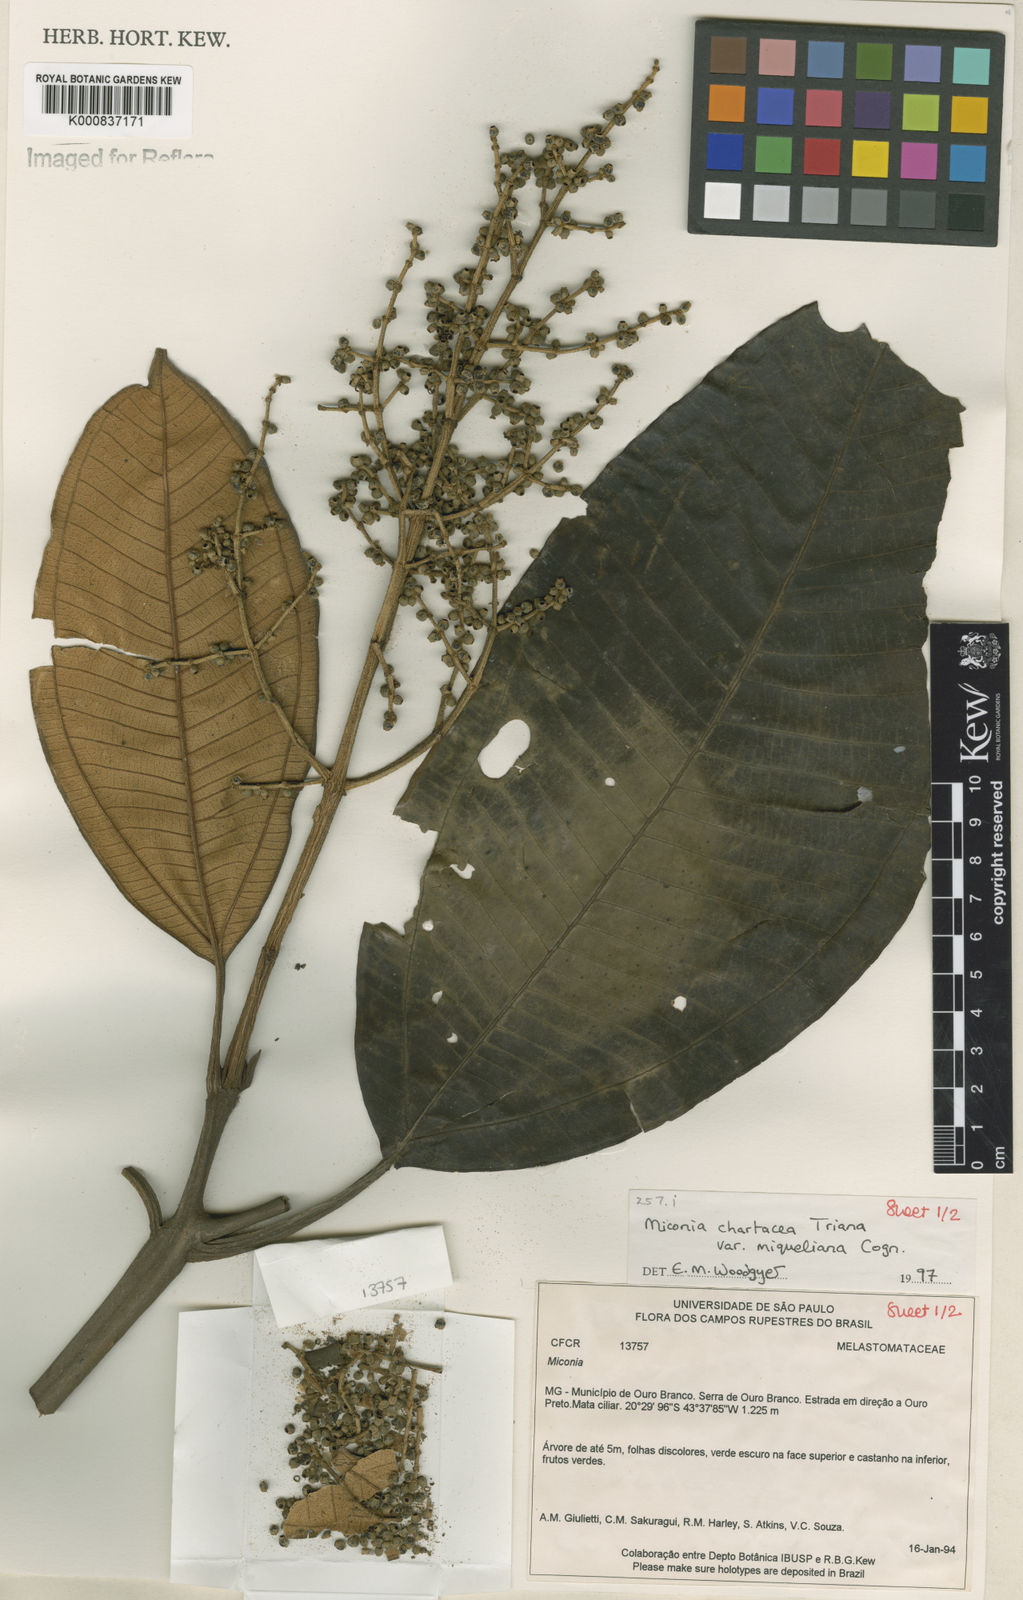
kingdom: Plantae
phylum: Tracheophyta
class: Magnoliopsida
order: Myrtales
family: Melastomataceae
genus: Miconia
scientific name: Miconia chartacea
